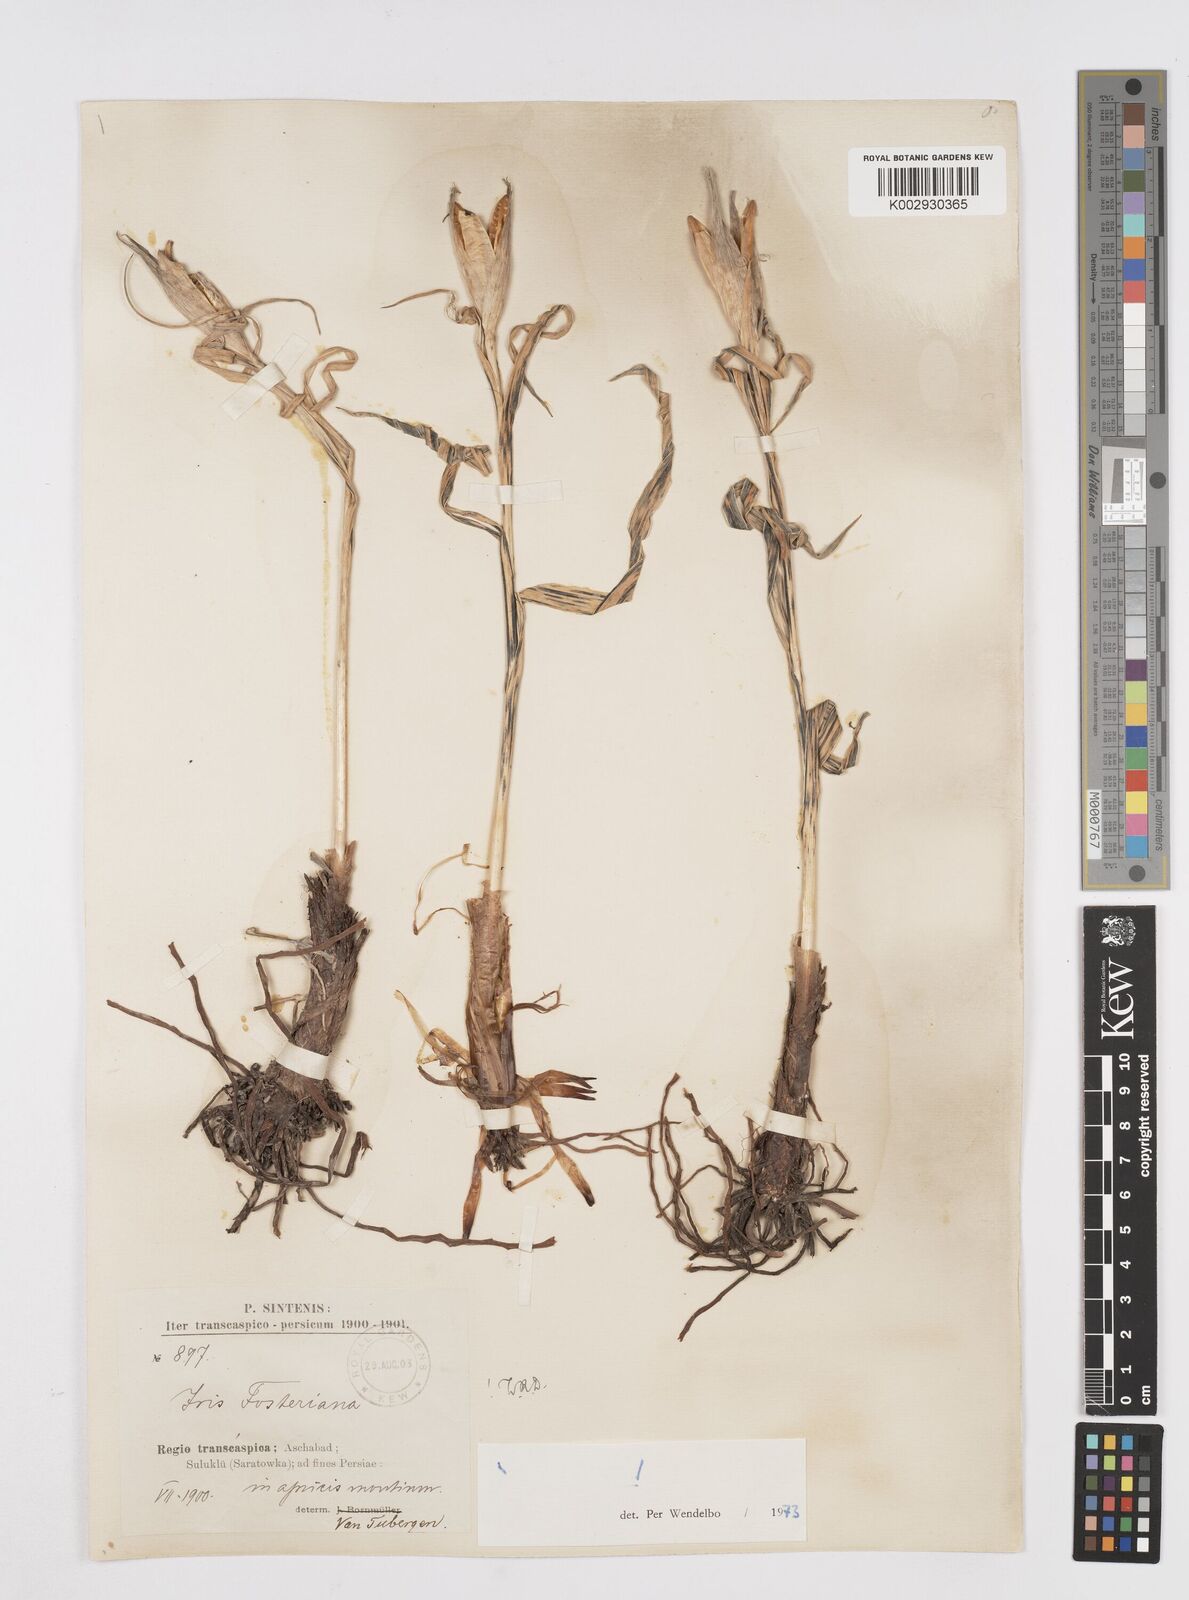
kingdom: Plantae
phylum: Tracheophyta
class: Liliopsida
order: Asparagales
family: Iridaceae
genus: Iris
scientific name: Iris fosteriana
